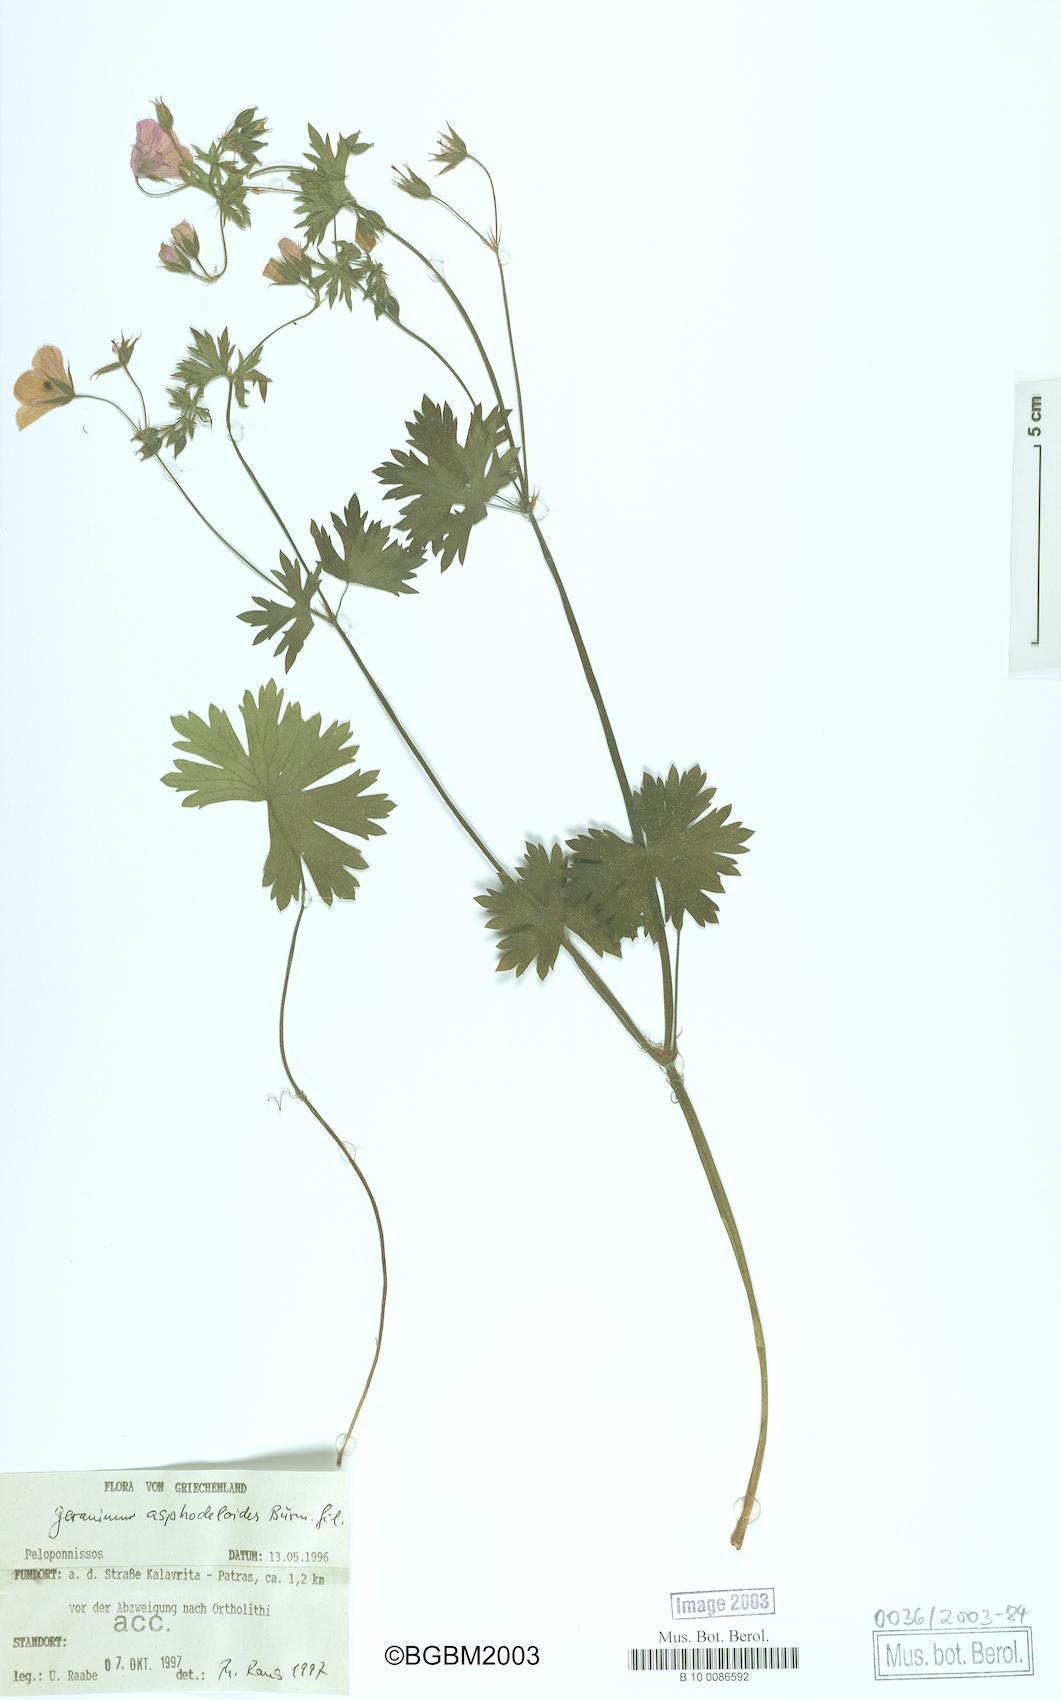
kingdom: Plantae
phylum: Tracheophyta
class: Magnoliopsida
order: Geraniales
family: Geraniaceae
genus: Geranium
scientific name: Geranium asphodeloides
